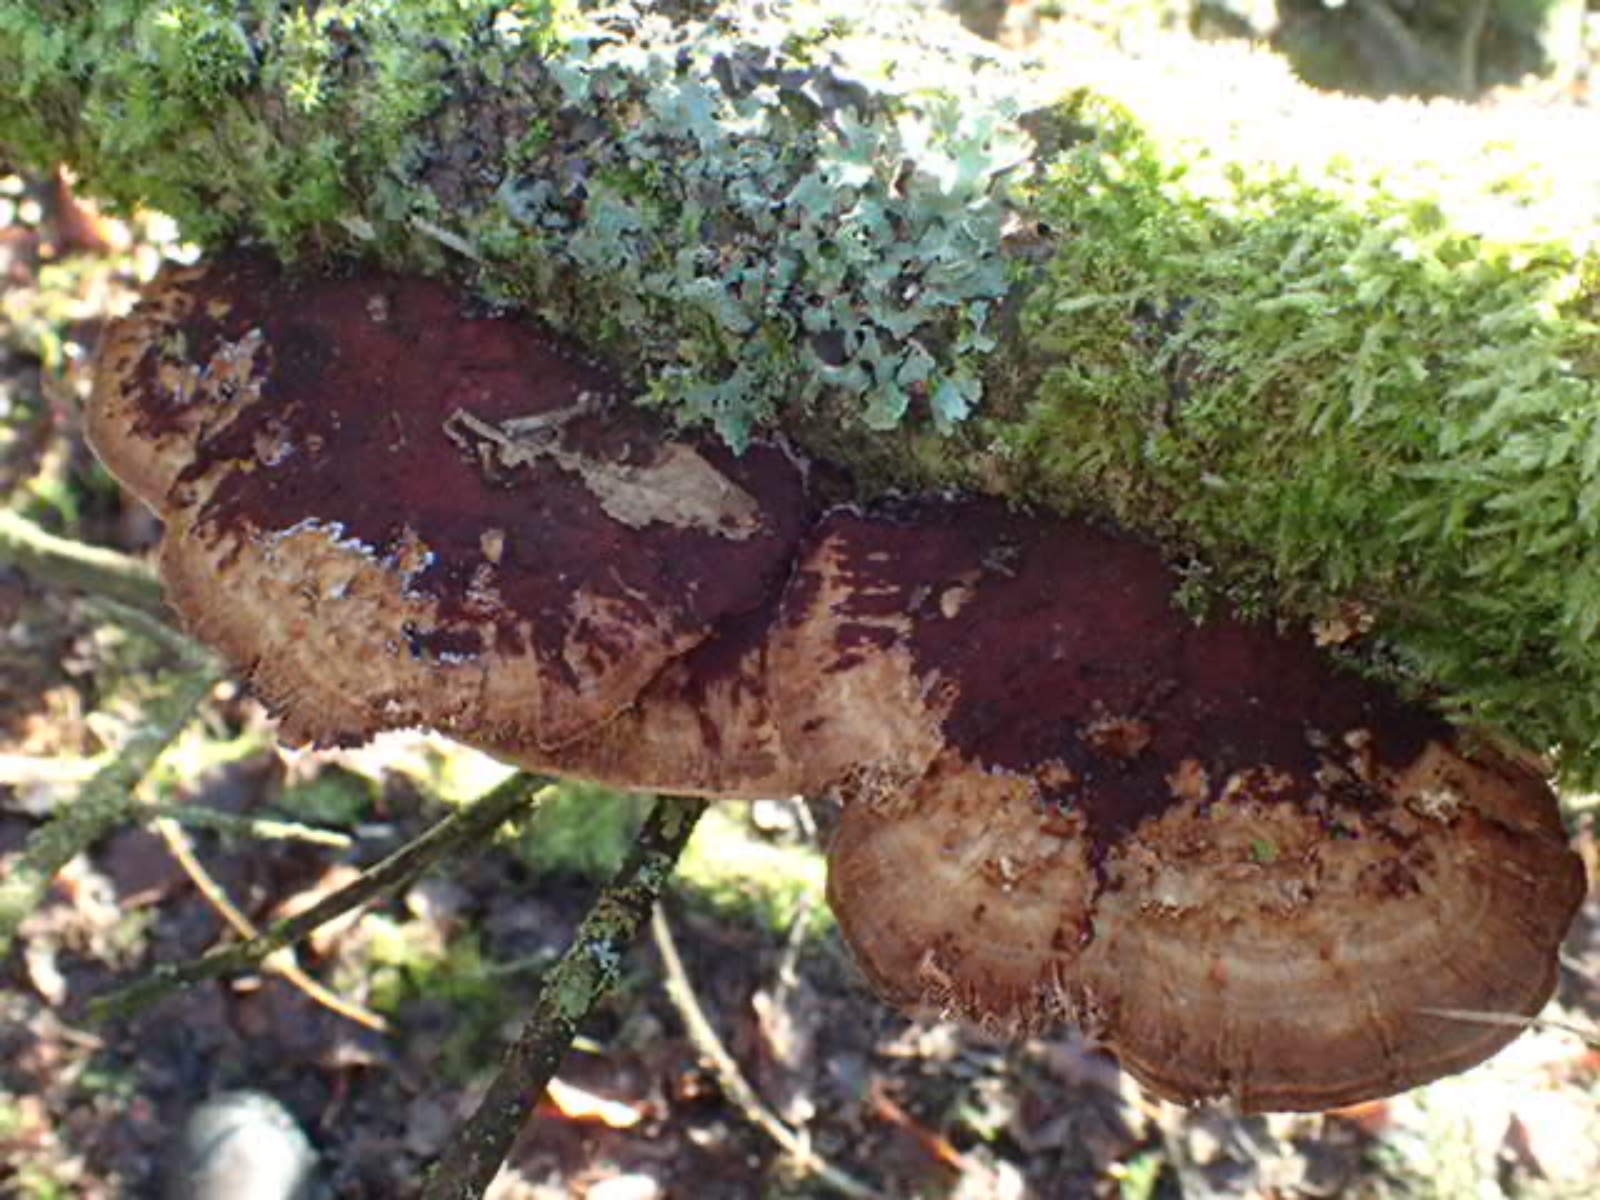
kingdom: Fungi
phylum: Basidiomycota
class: Agaricomycetes
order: Polyporales
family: Polyporaceae
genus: Daedaleopsis
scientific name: Daedaleopsis confragosa
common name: rødmende læderporesvamp
